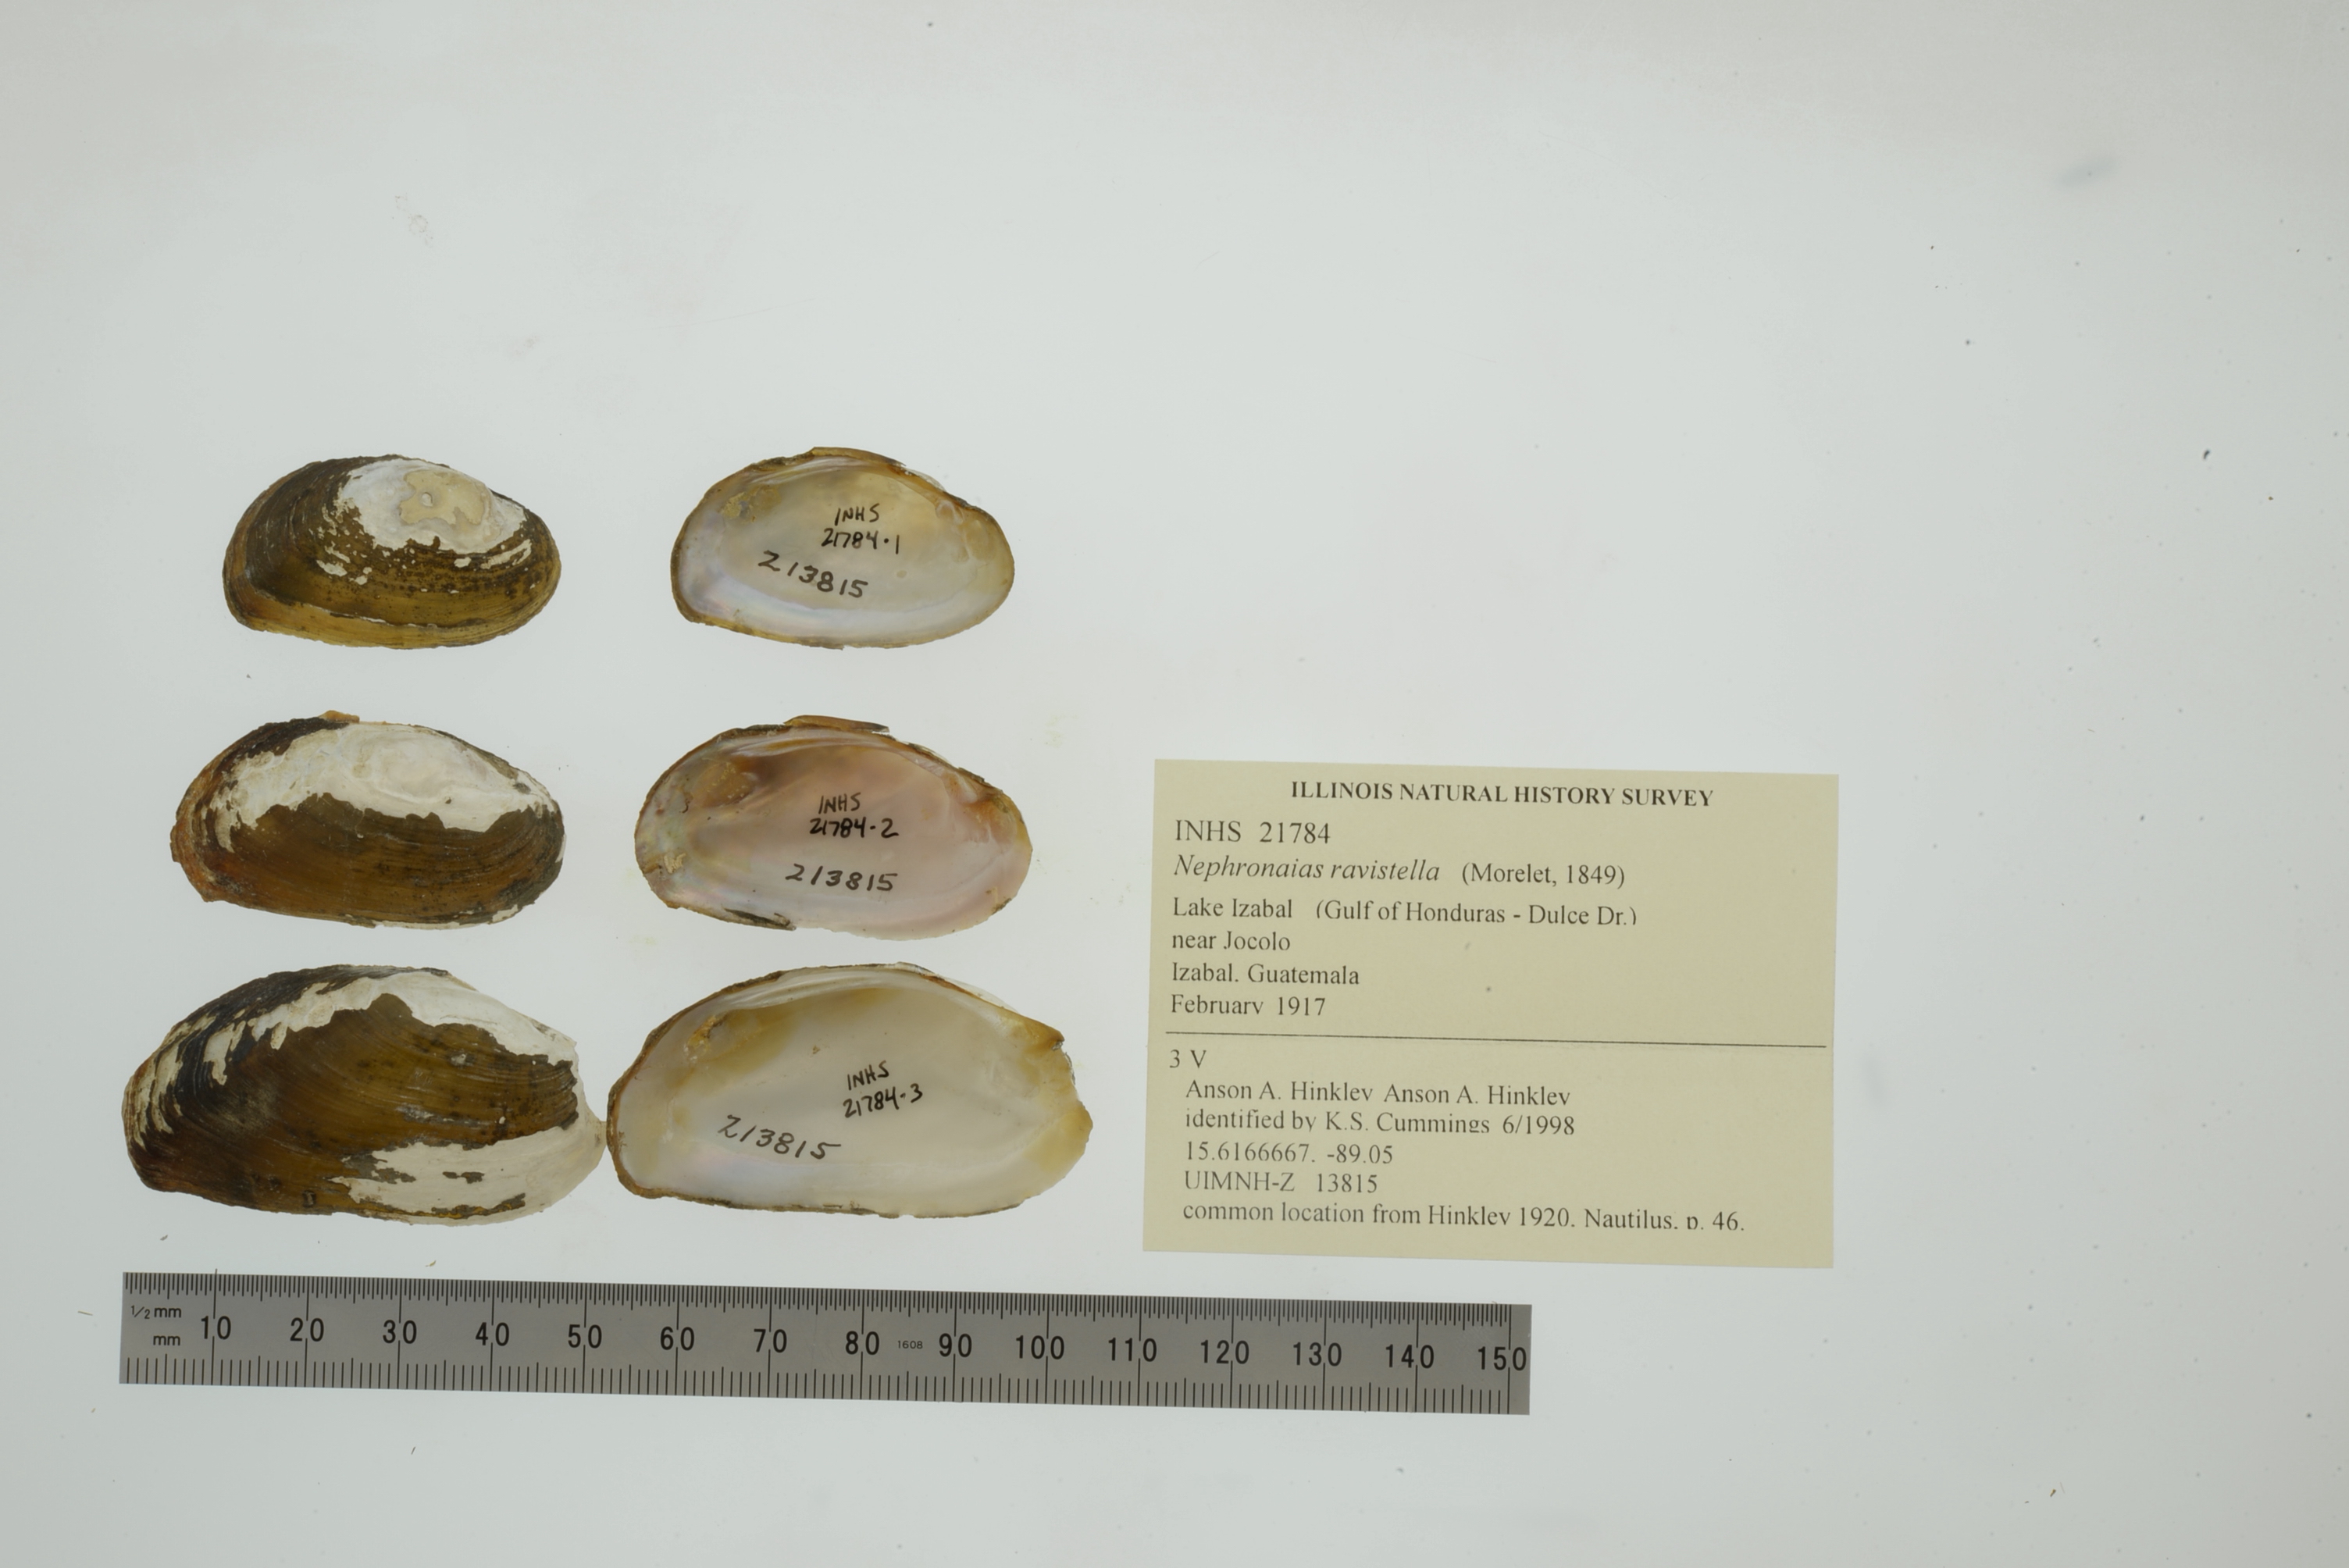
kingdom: Animalia
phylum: Mollusca
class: Bivalvia
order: Unionida
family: Unionidae
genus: Nephronaias
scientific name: Nephronaias ravistella
